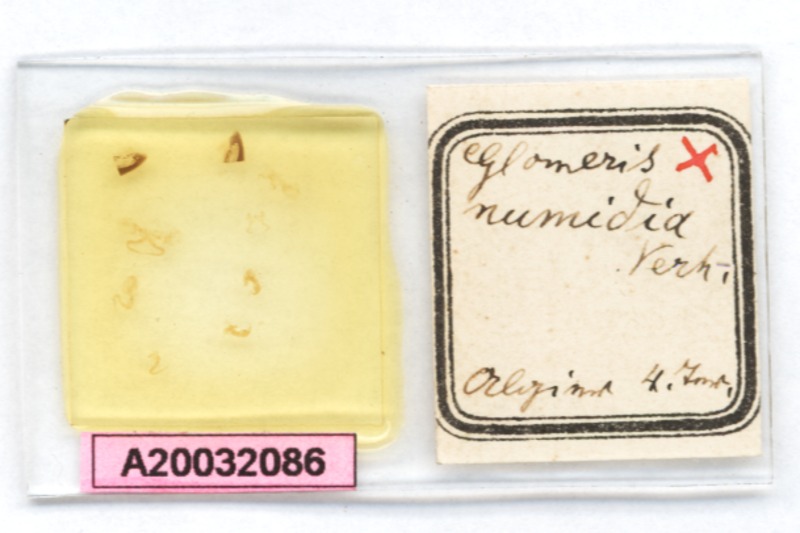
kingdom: Animalia
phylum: Arthropoda
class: Diplopoda
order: Glomerida
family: Glomeridae
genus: Glomeris
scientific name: Glomeris punica
